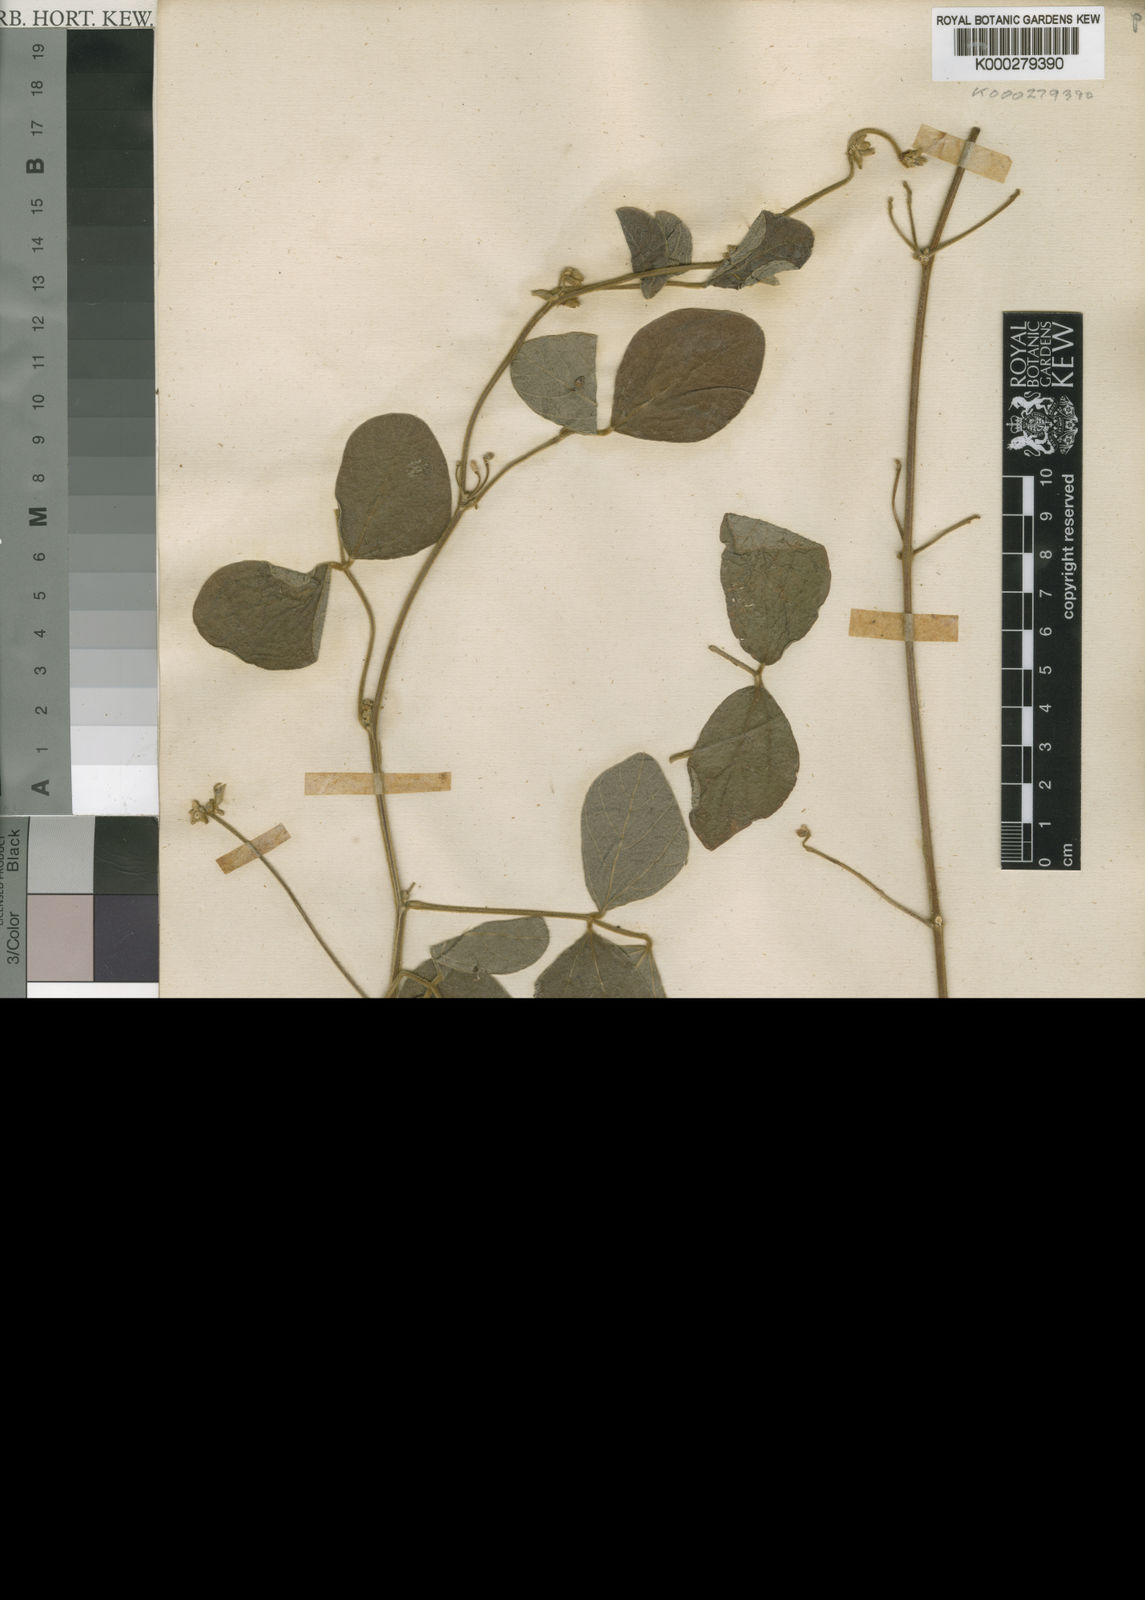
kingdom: Plantae
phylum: Tracheophyta
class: Magnoliopsida
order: Fabales
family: Fabaceae
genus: Cajanus
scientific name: Cajanus reticulatus
